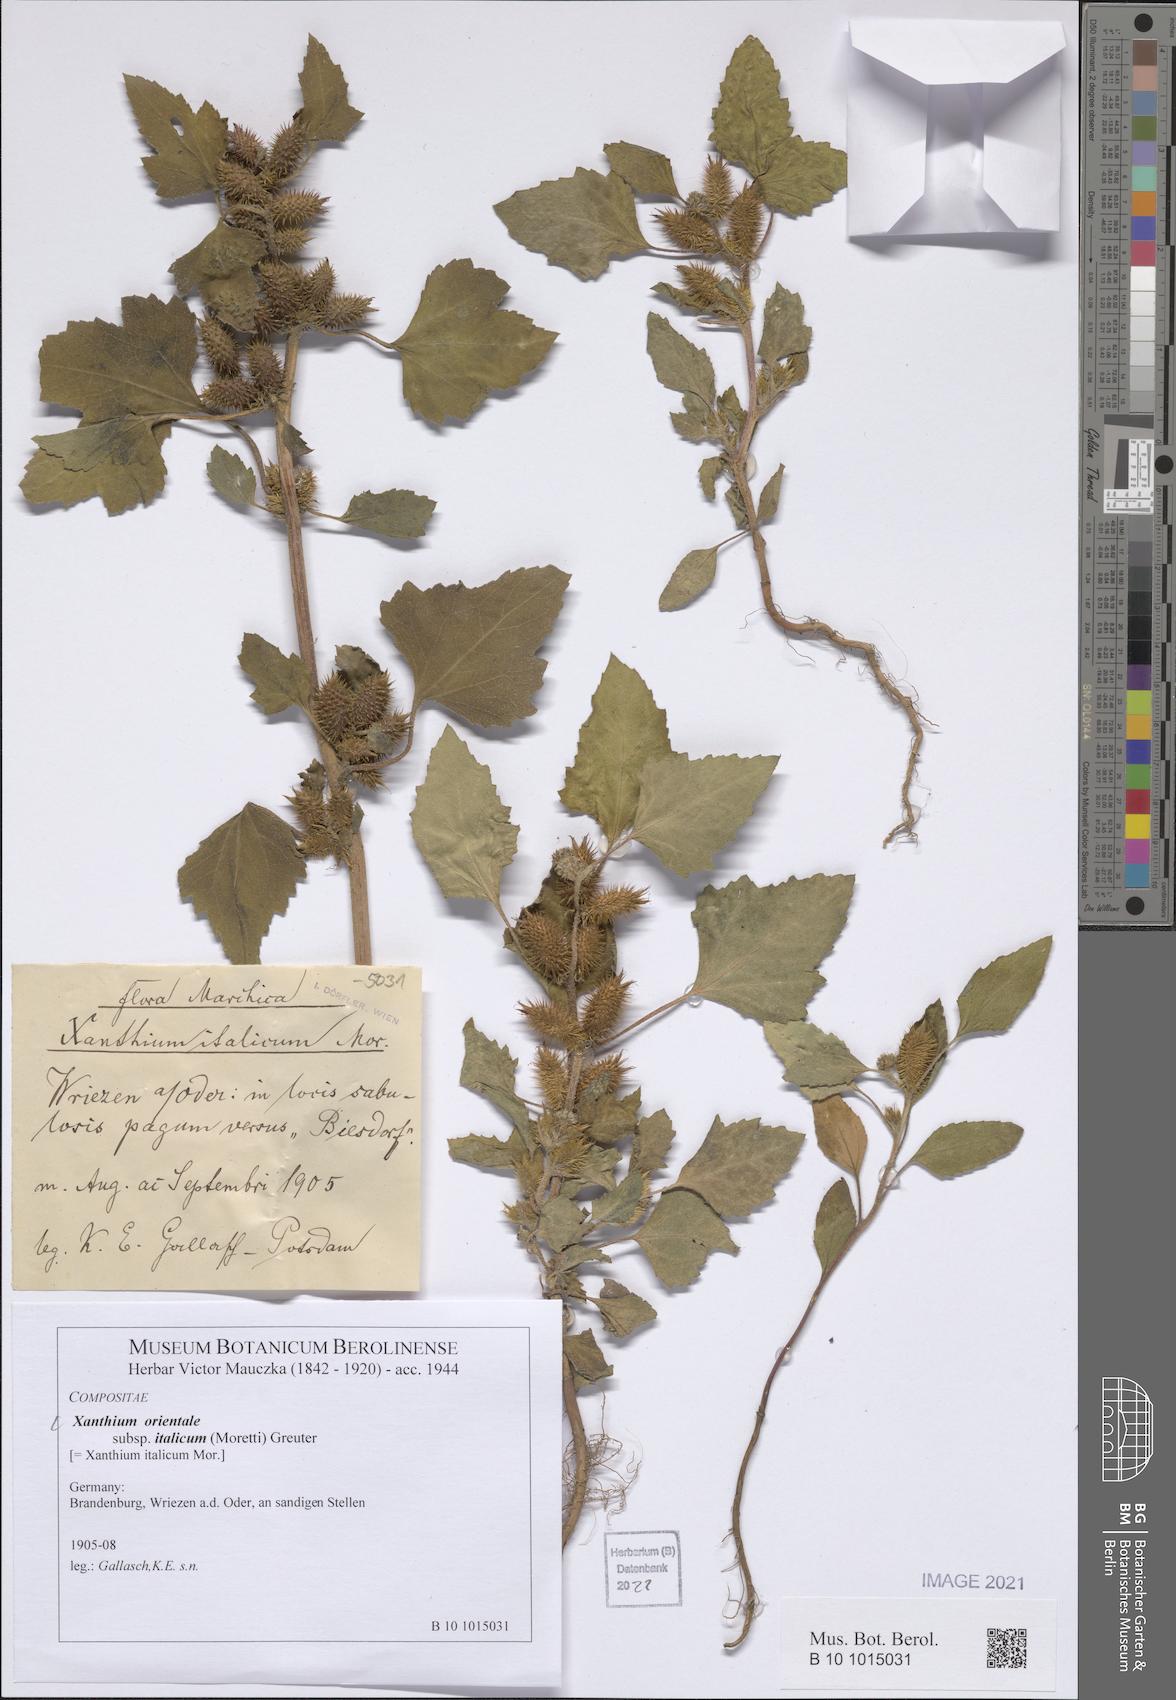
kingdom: Plantae
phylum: Tracheophyta
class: Magnoliopsida
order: Asterales
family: Asteraceae
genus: Xanthium
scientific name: Xanthium orientale
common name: Californian burr
